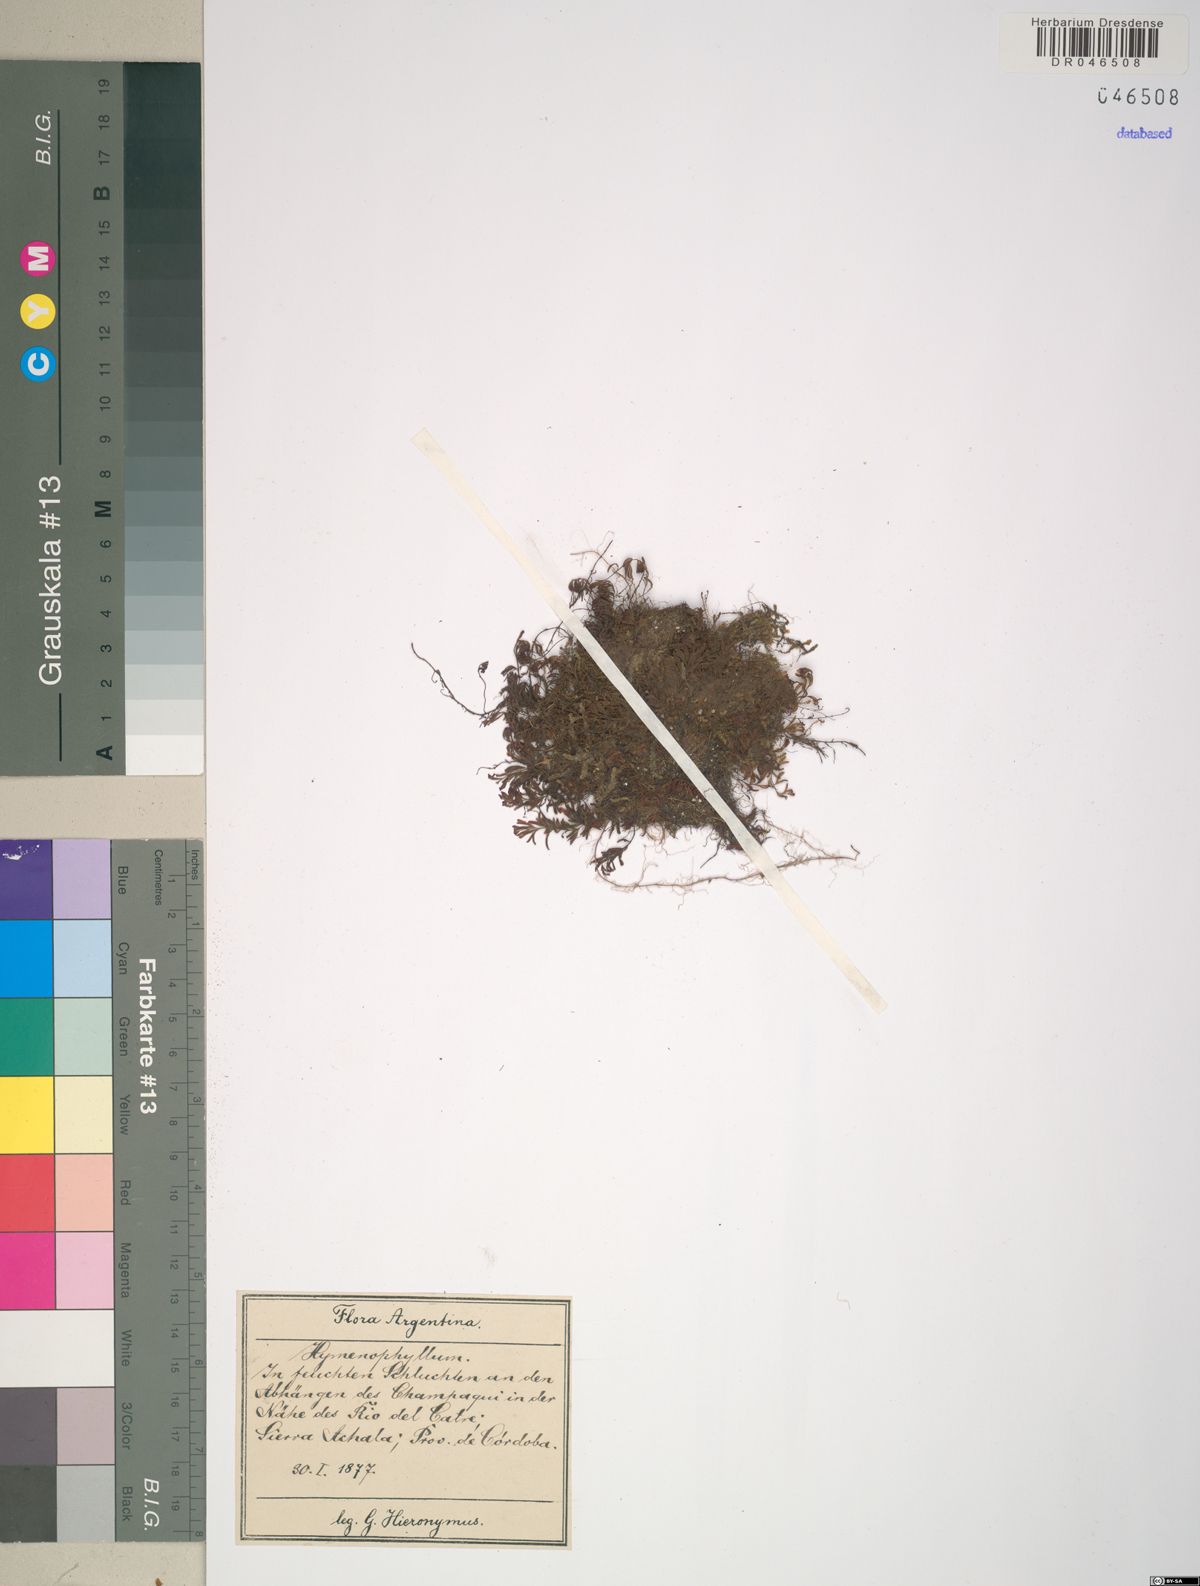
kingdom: Plantae
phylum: Tracheophyta
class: Polypodiopsida
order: Hymenophyllales
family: Hymenophyllaceae
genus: Hymenophyllum
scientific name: Hymenophyllum cordobense
